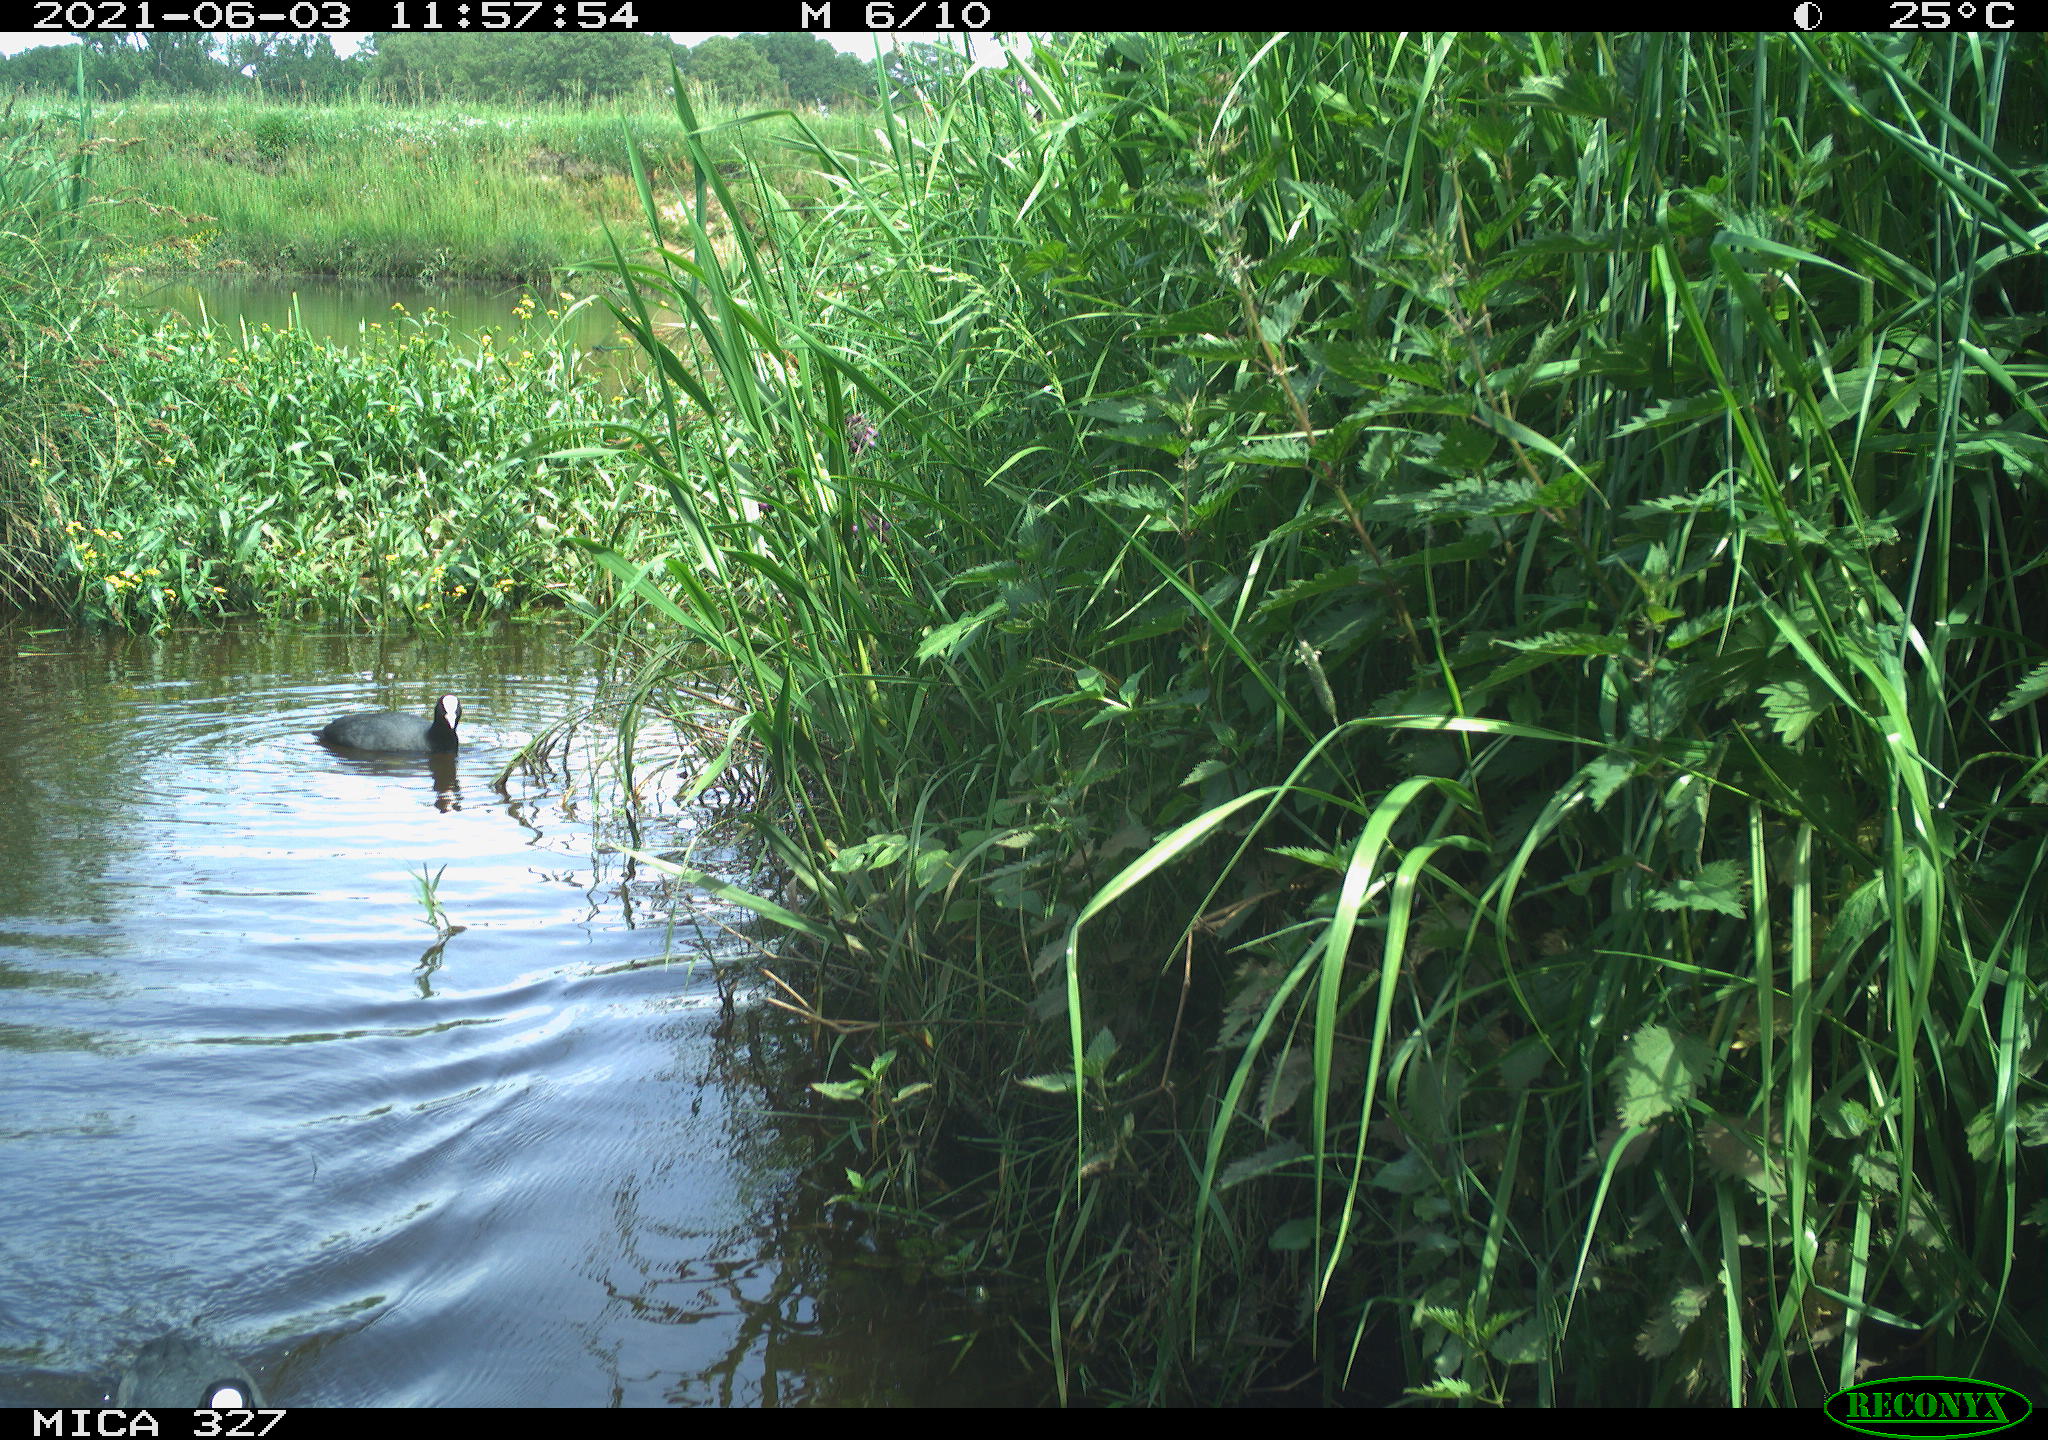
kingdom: Animalia
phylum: Chordata
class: Aves
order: Gruiformes
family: Rallidae
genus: Fulica
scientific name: Fulica atra
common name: Eurasian coot
